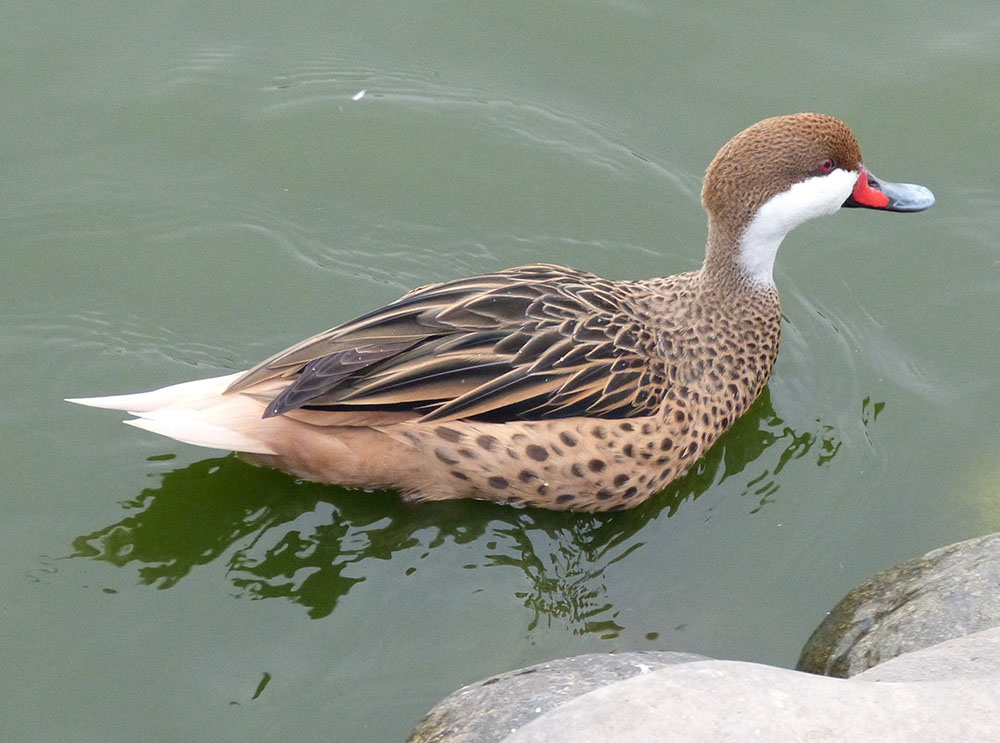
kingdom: Animalia
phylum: Chordata
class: Aves
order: Anseriformes
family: Anatidae
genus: Anas
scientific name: Anas bahamensis
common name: White-cheeked pintail
